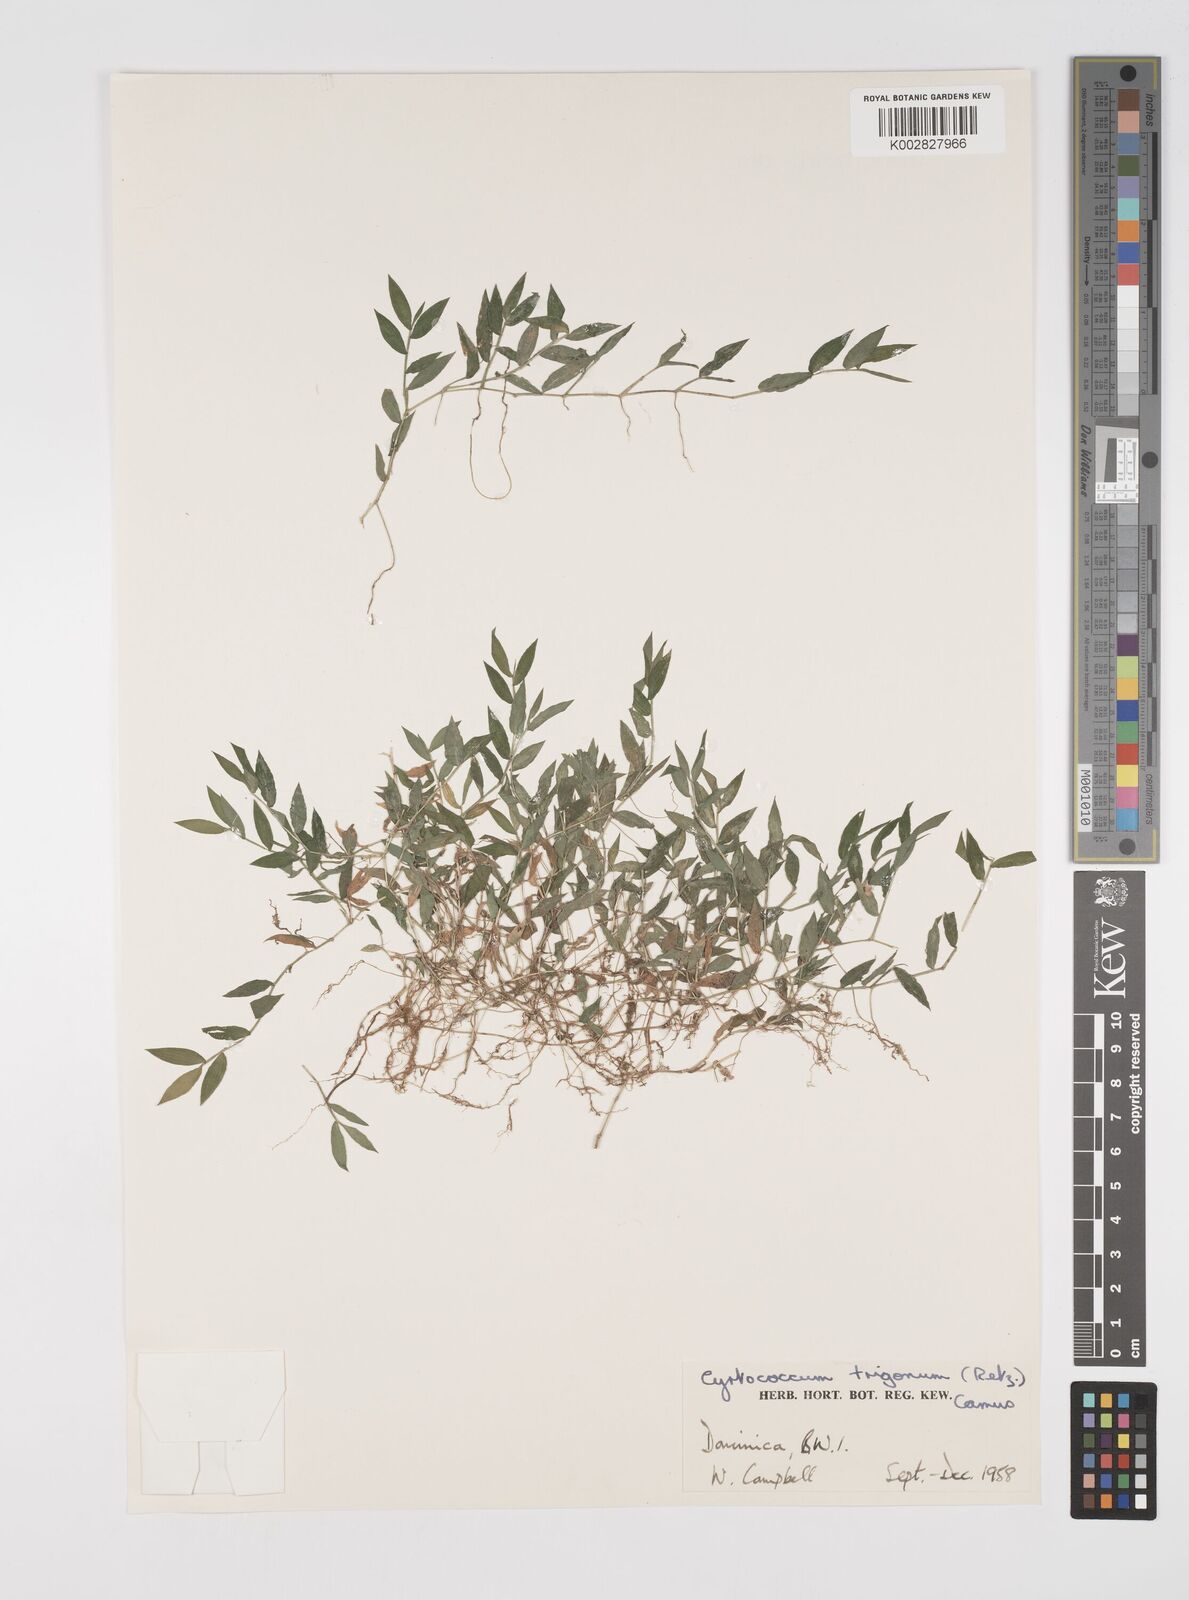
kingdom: Plantae
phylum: Tracheophyta
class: Liliopsida
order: Poales
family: Poaceae
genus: Cyrtococcum
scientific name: Cyrtococcum trigonum
